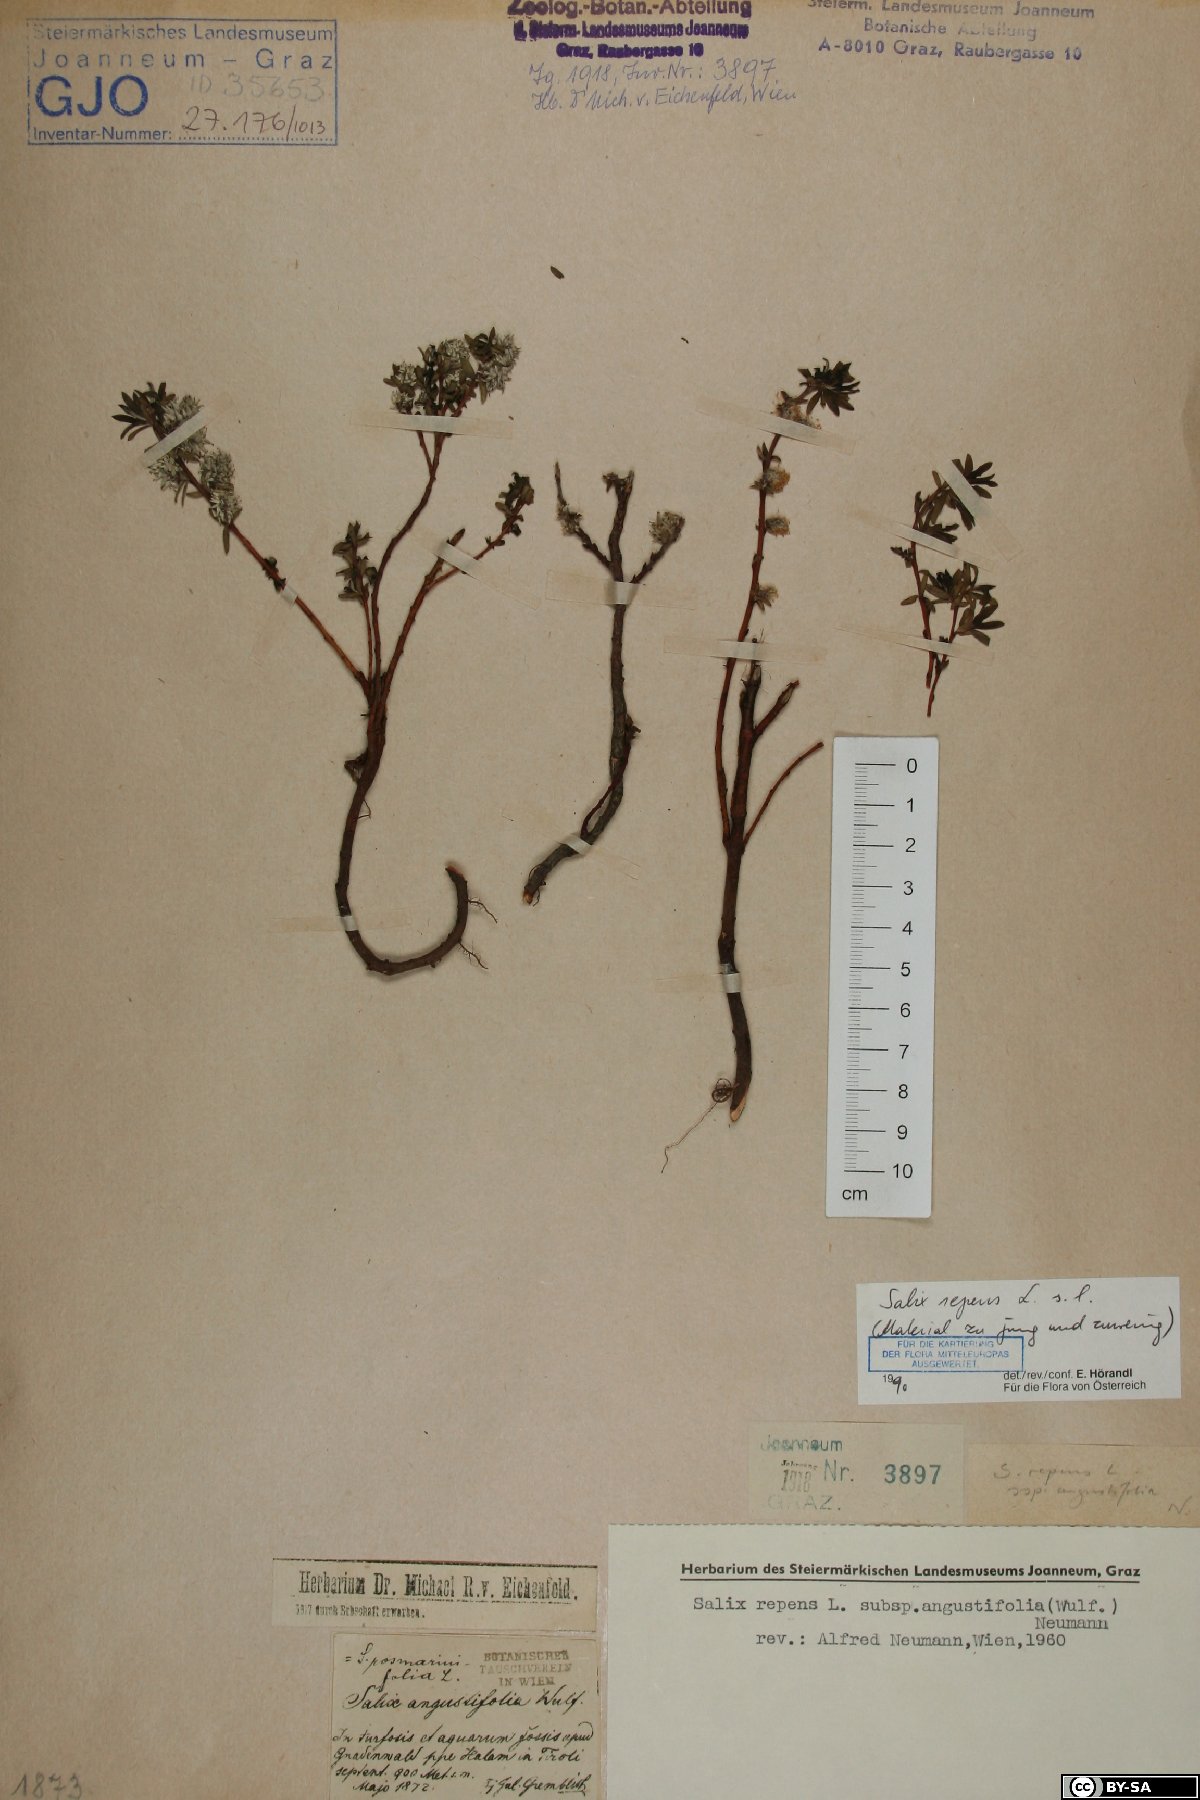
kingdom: Plantae
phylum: Tracheophyta
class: Magnoliopsida
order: Malpighiales
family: Salicaceae
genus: Salix
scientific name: Salix repens
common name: Creeping willow
